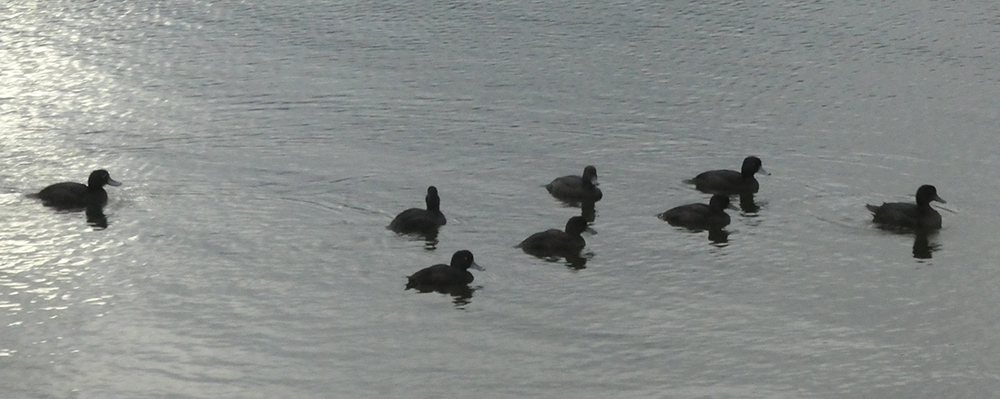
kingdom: Animalia
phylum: Chordata
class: Aves
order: Anseriformes
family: Anatidae
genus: Aythya
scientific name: Aythya novaeseelandiae
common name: New zealand scaup
